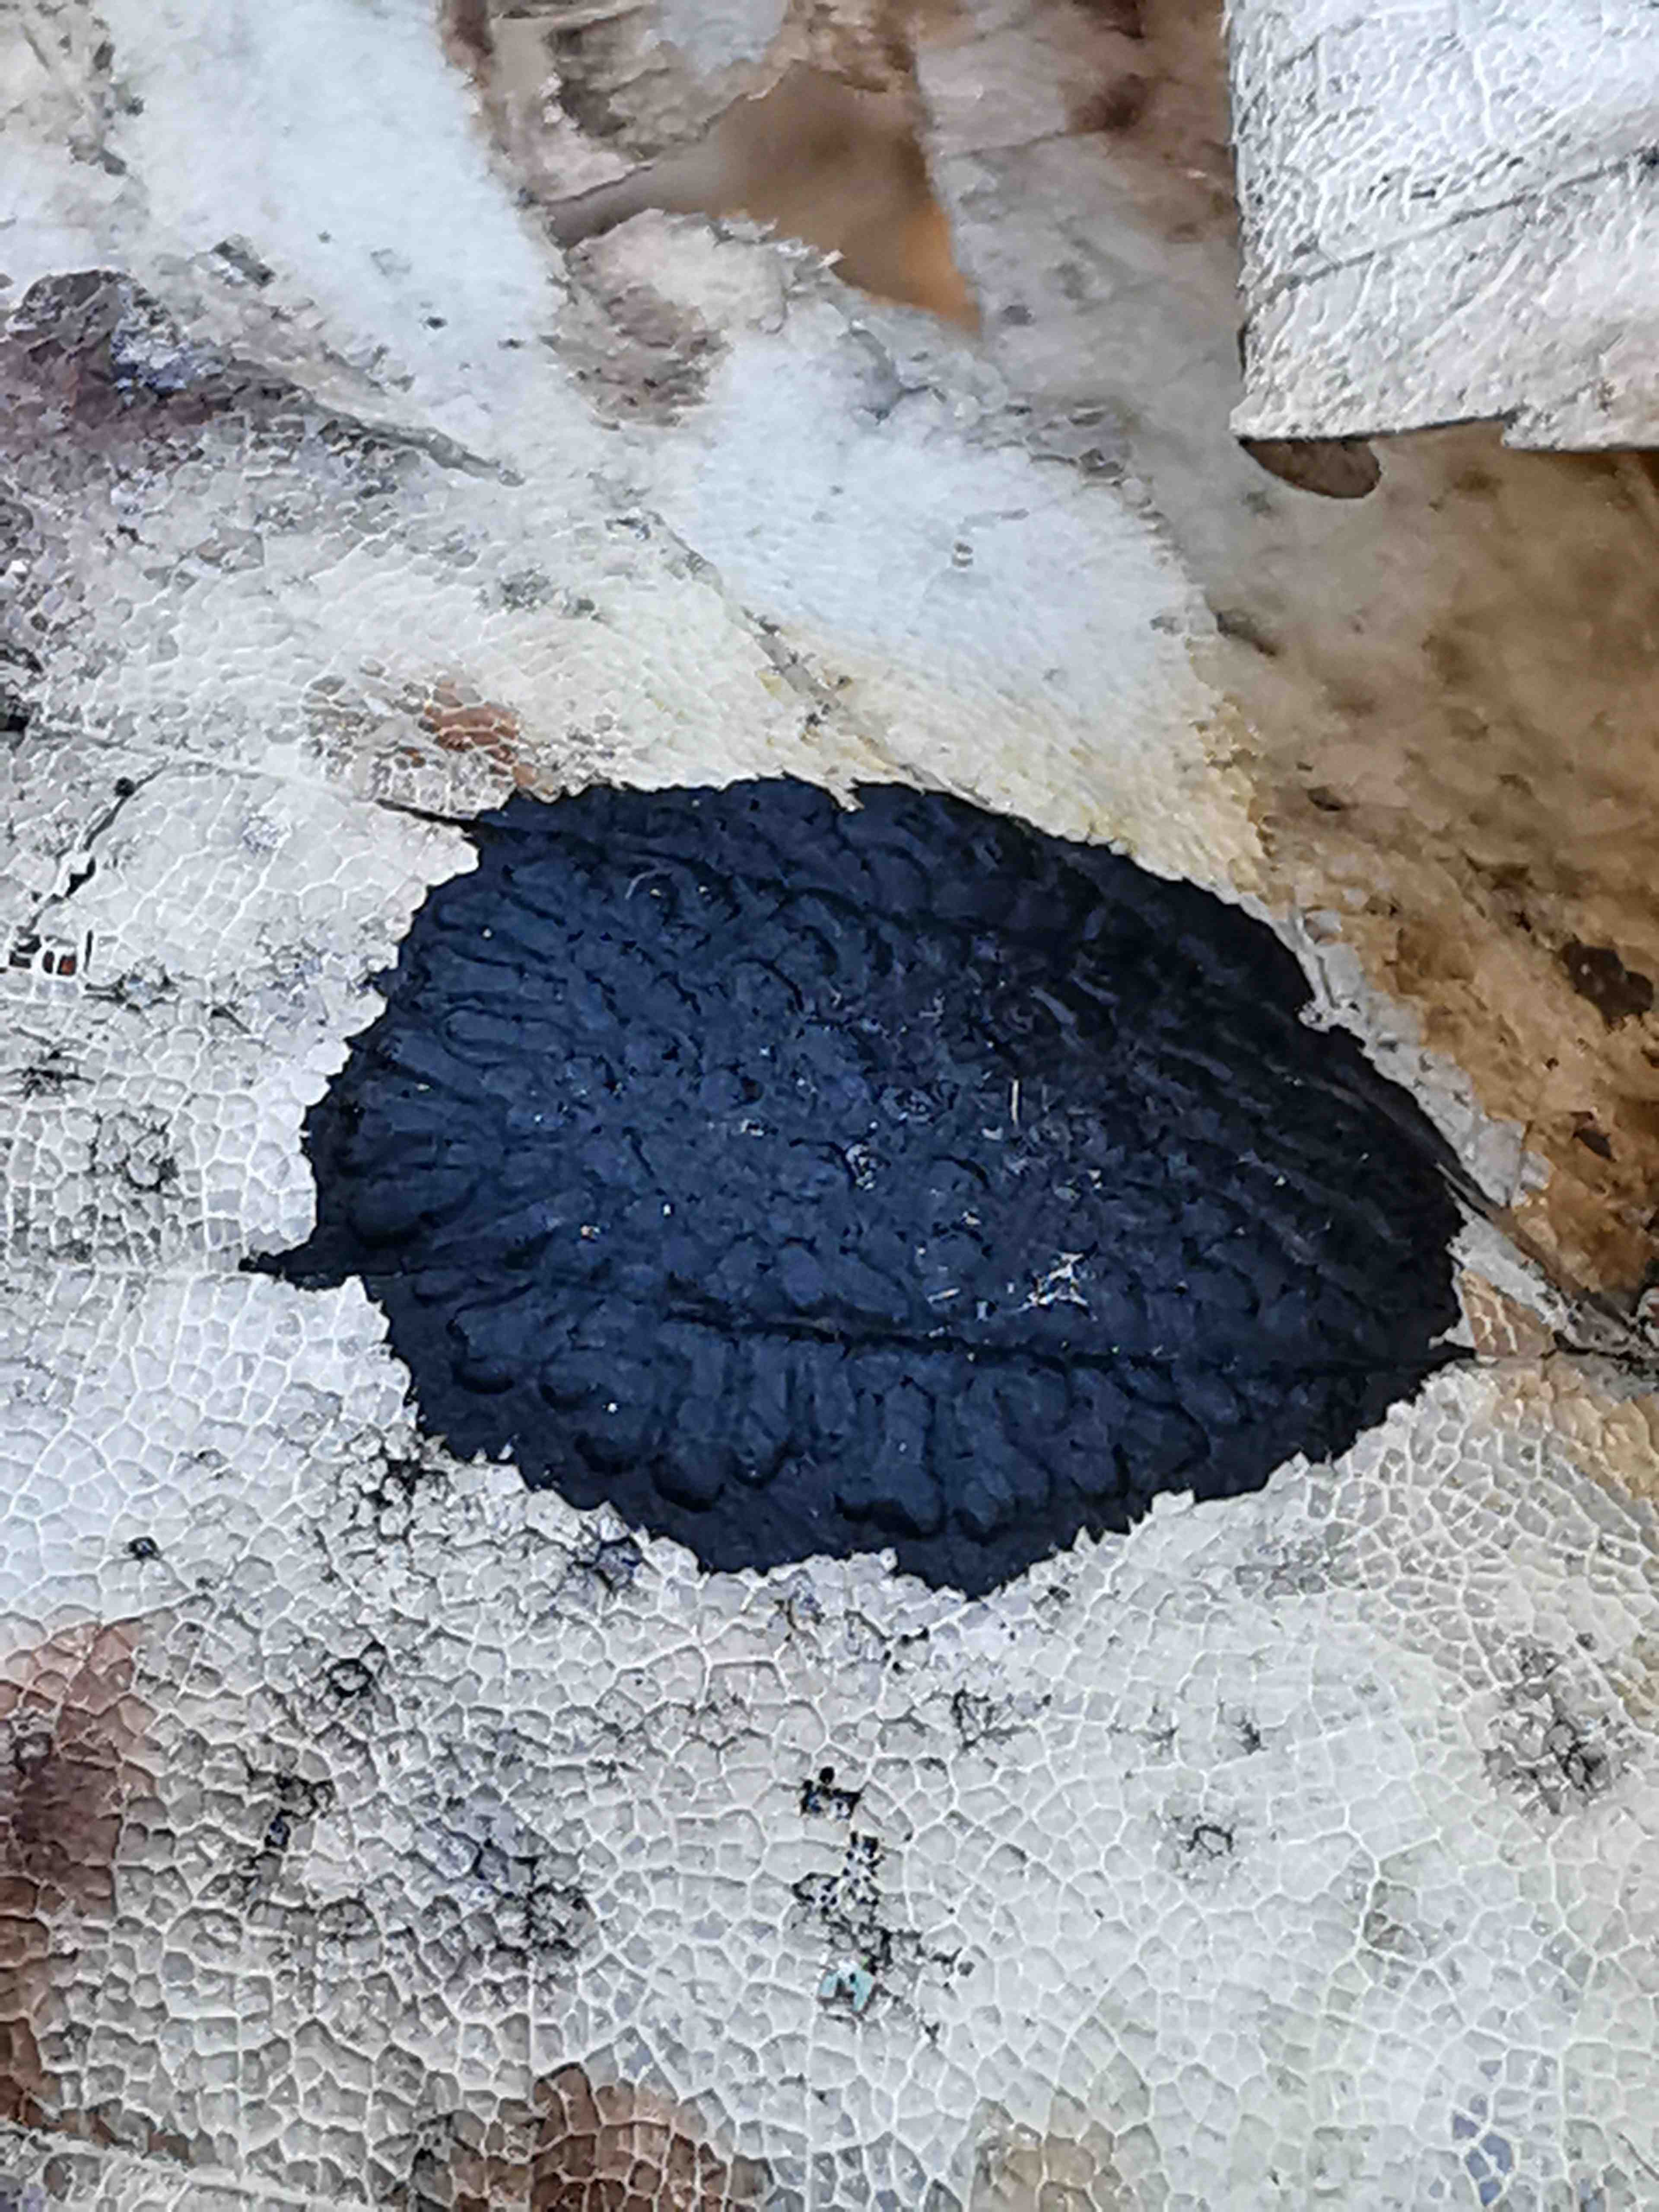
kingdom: Fungi
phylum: Ascomycota
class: Leotiomycetes
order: Rhytismatales
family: Rhytismataceae
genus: Rhytisma
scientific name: Rhytisma acerinum
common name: ahorn-rynkeplet
